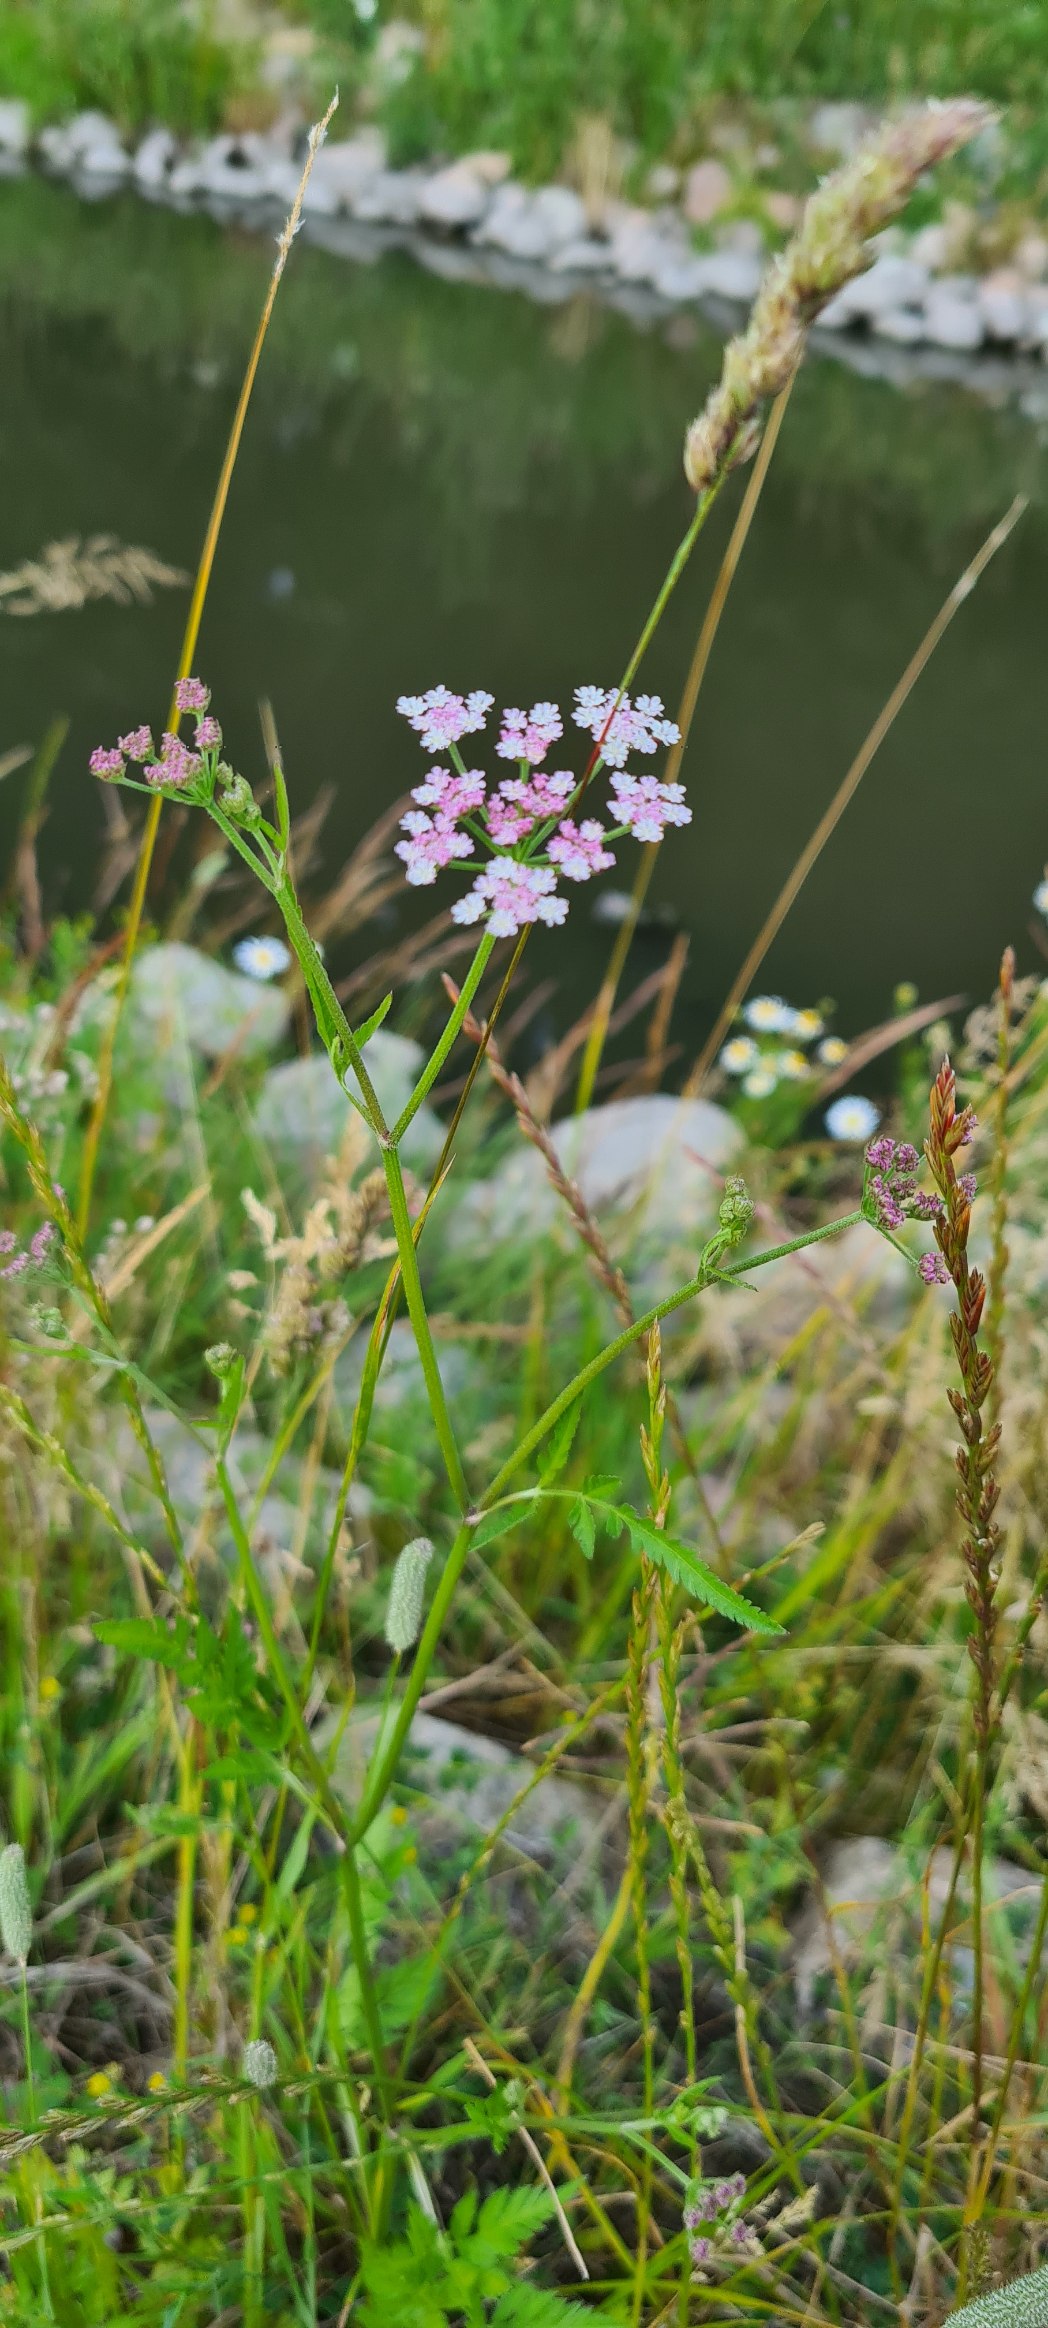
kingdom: Plantae
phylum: Tracheophyta
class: Magnoliopsida
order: Apiales
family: Apiaceae
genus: Torilis
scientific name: Torilis japonica
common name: Hvas randfrø
